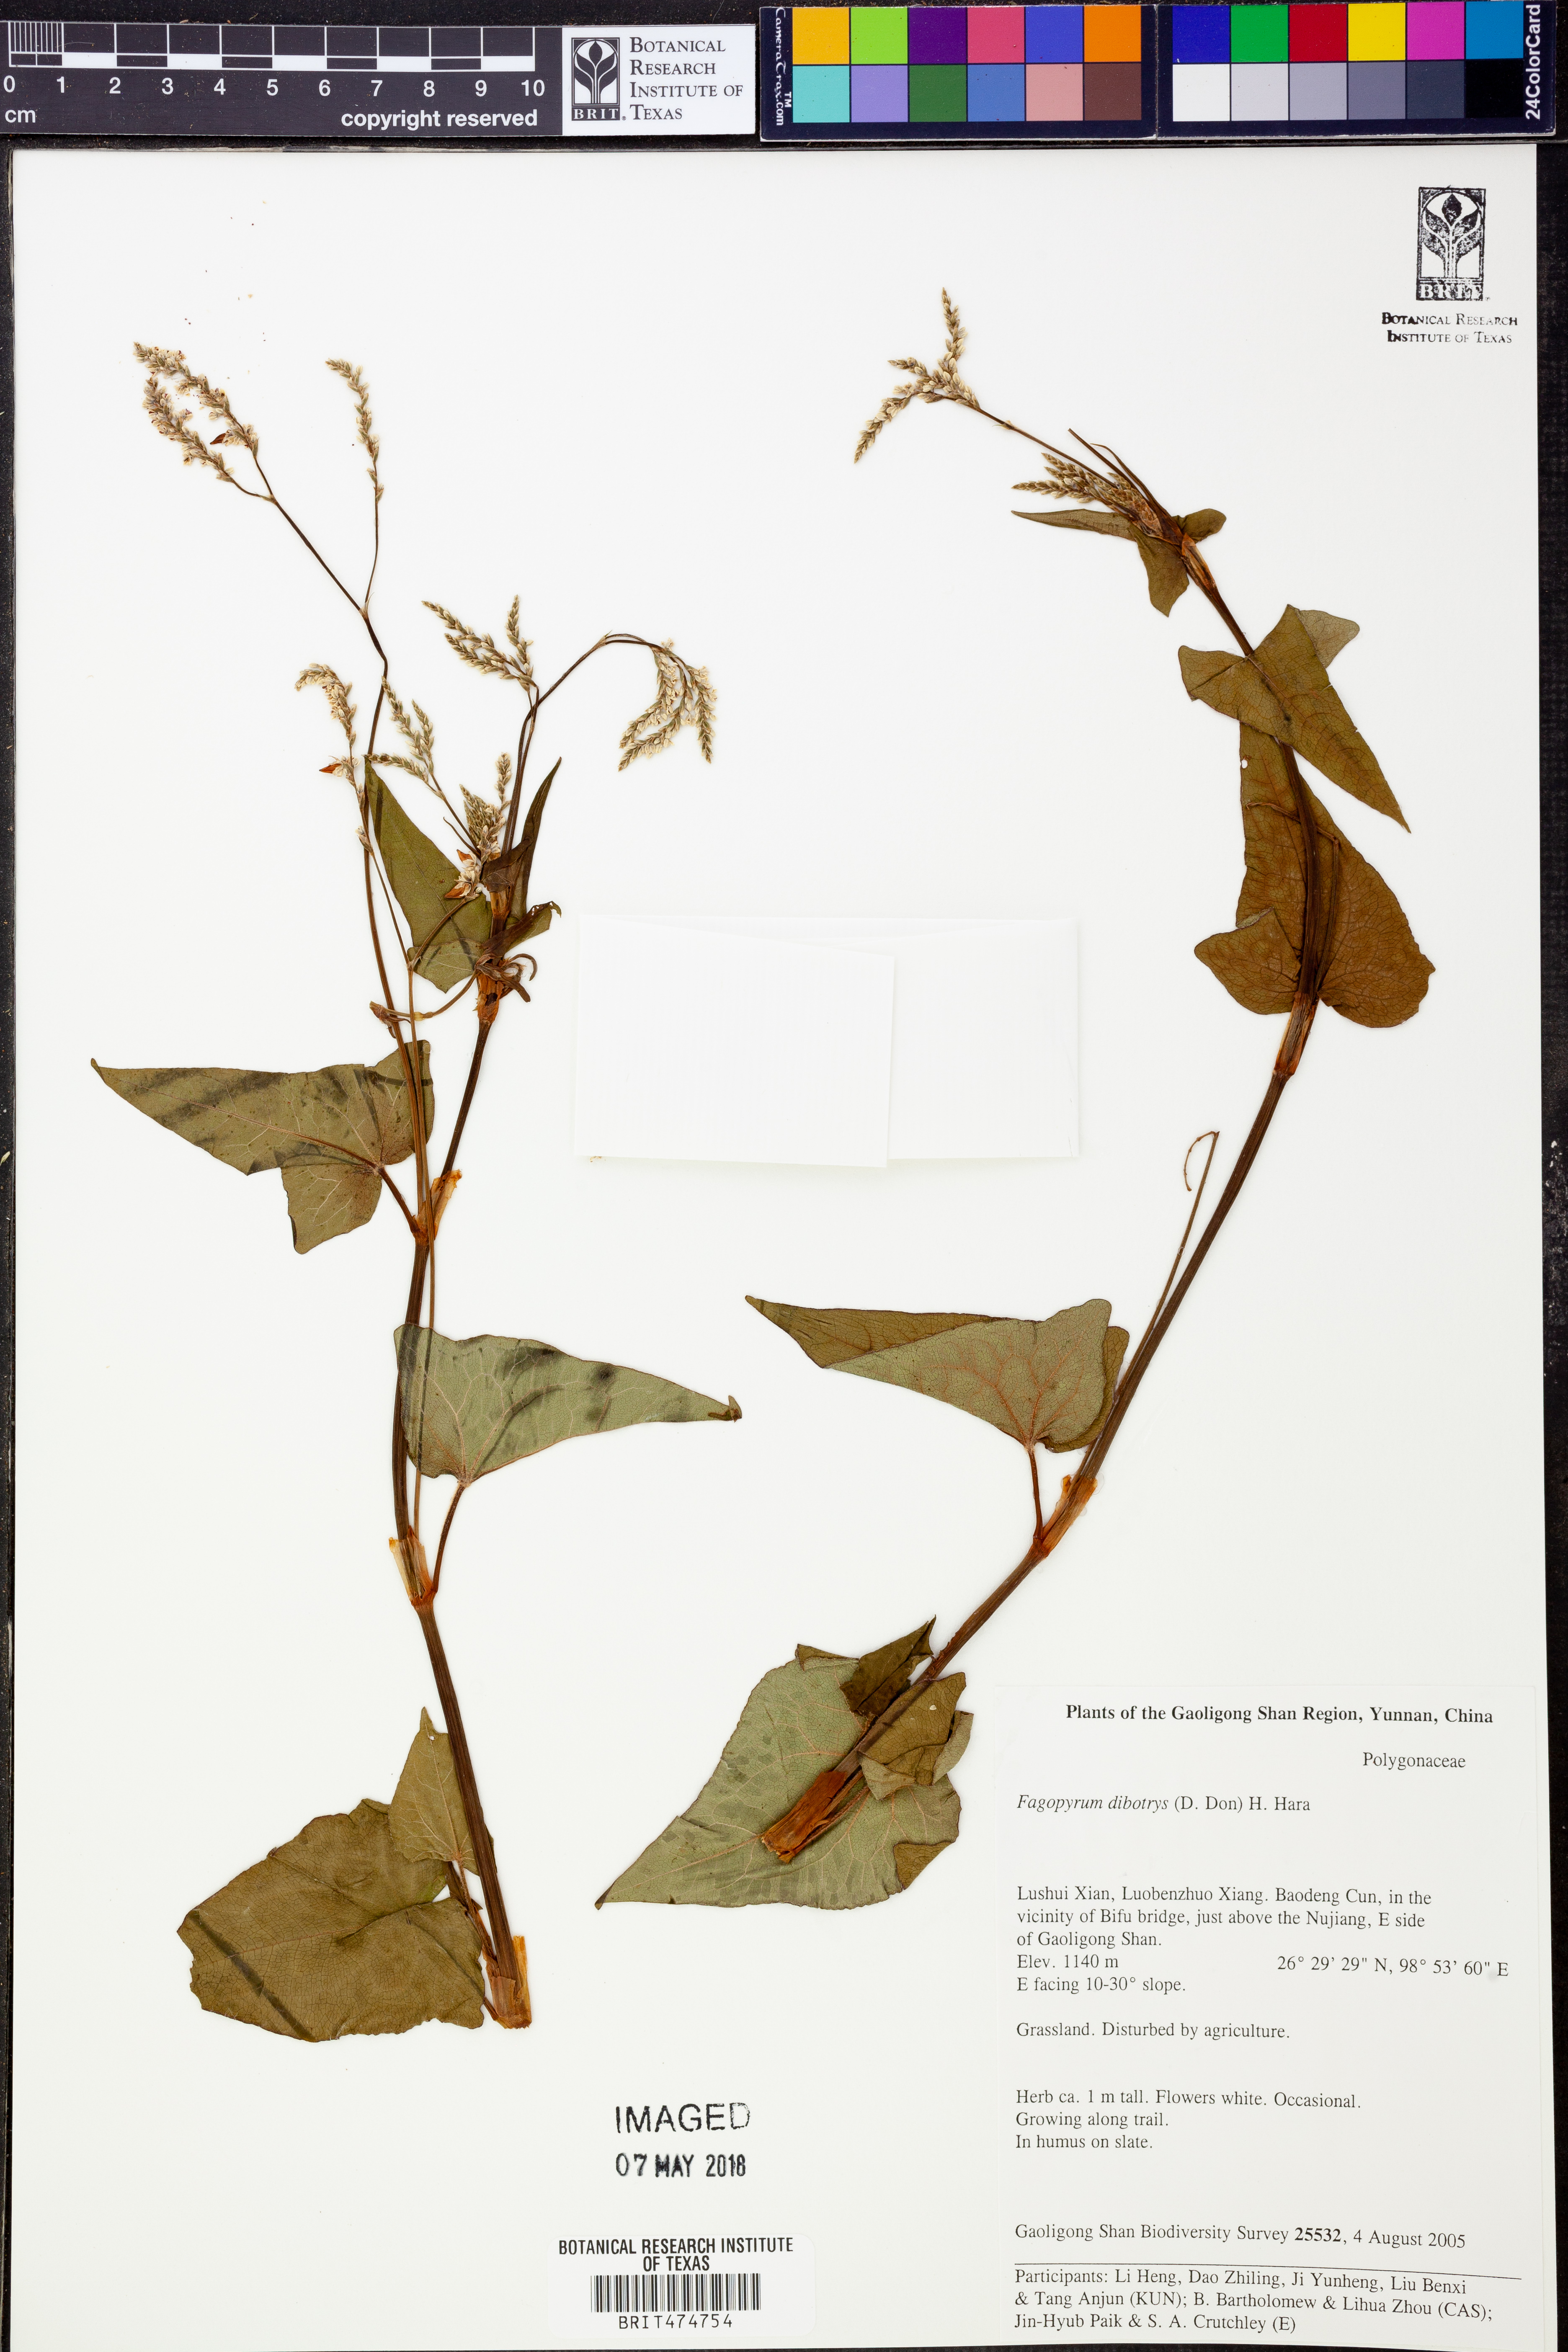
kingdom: Plantae
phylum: Tracheophyta
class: Magnoliopsida
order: Caryophyllales
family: Polygonaceae
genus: Fagopyrum
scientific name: Fagopyrum cymosum
